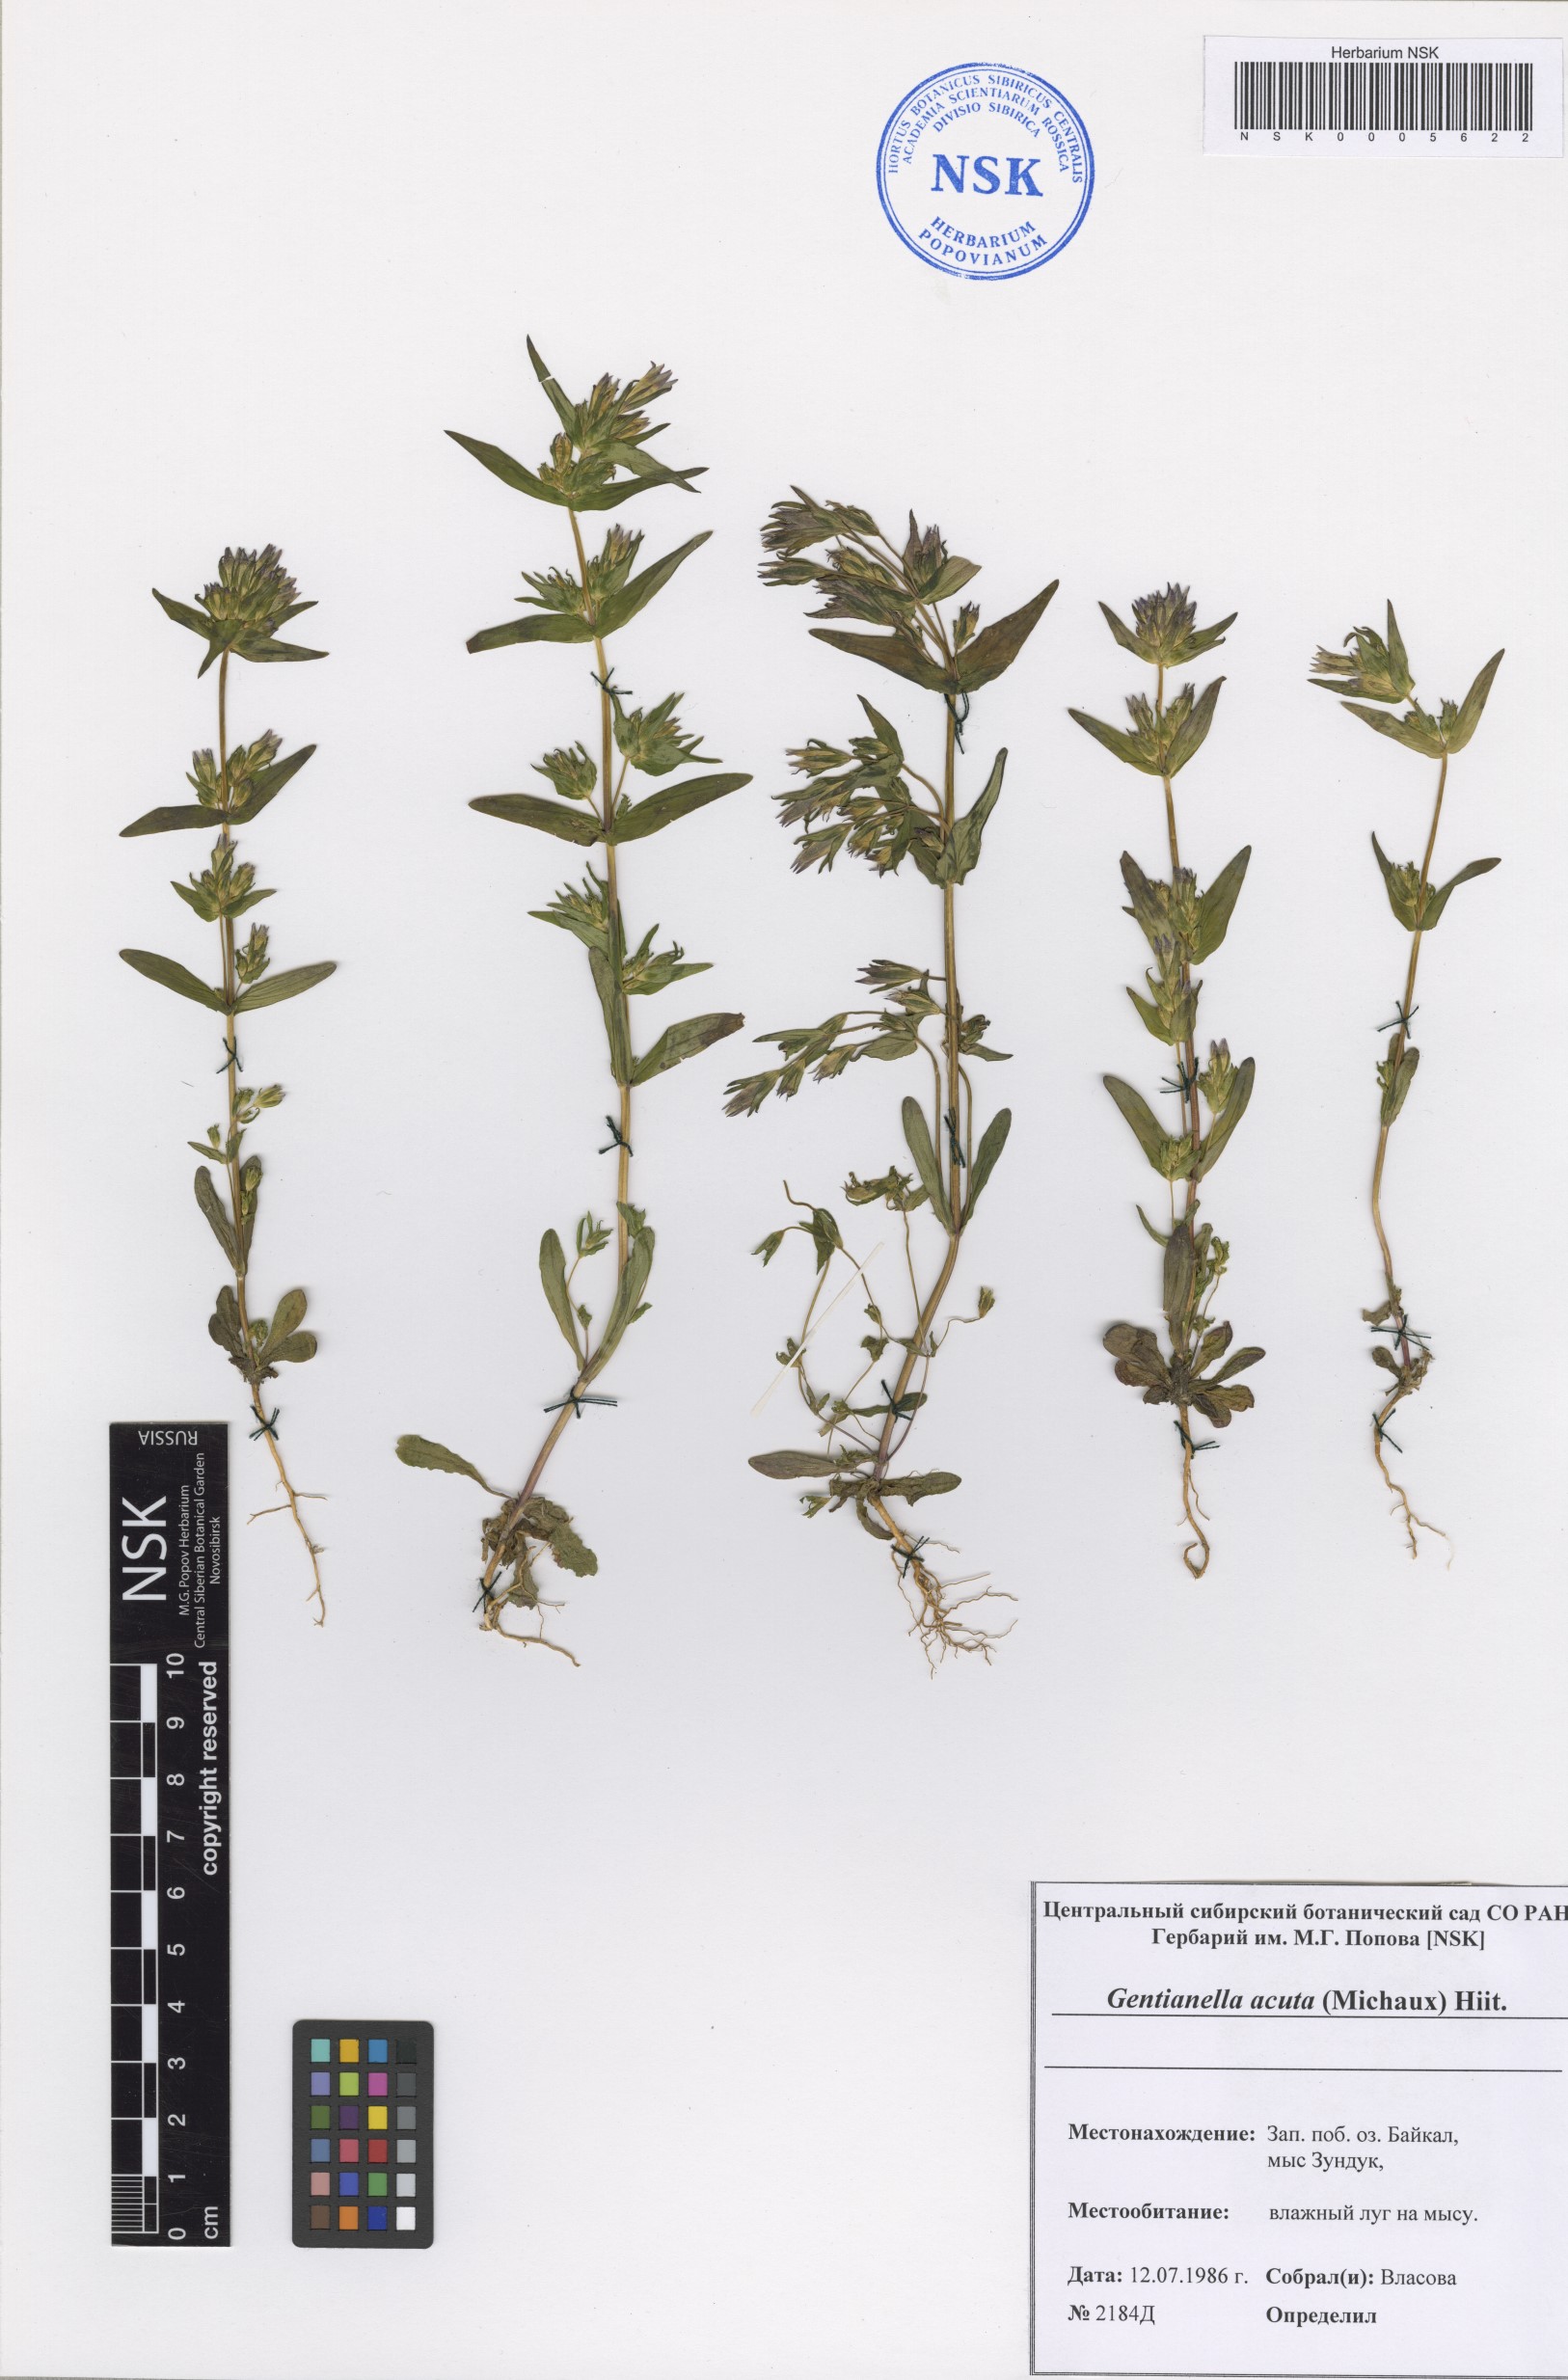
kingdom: Plantae
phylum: Tracheophyta
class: Magnoliopsida
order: Gentianales
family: Gentianaceae
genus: Gentianella
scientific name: Gentianella amarella
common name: Autumn gentian
